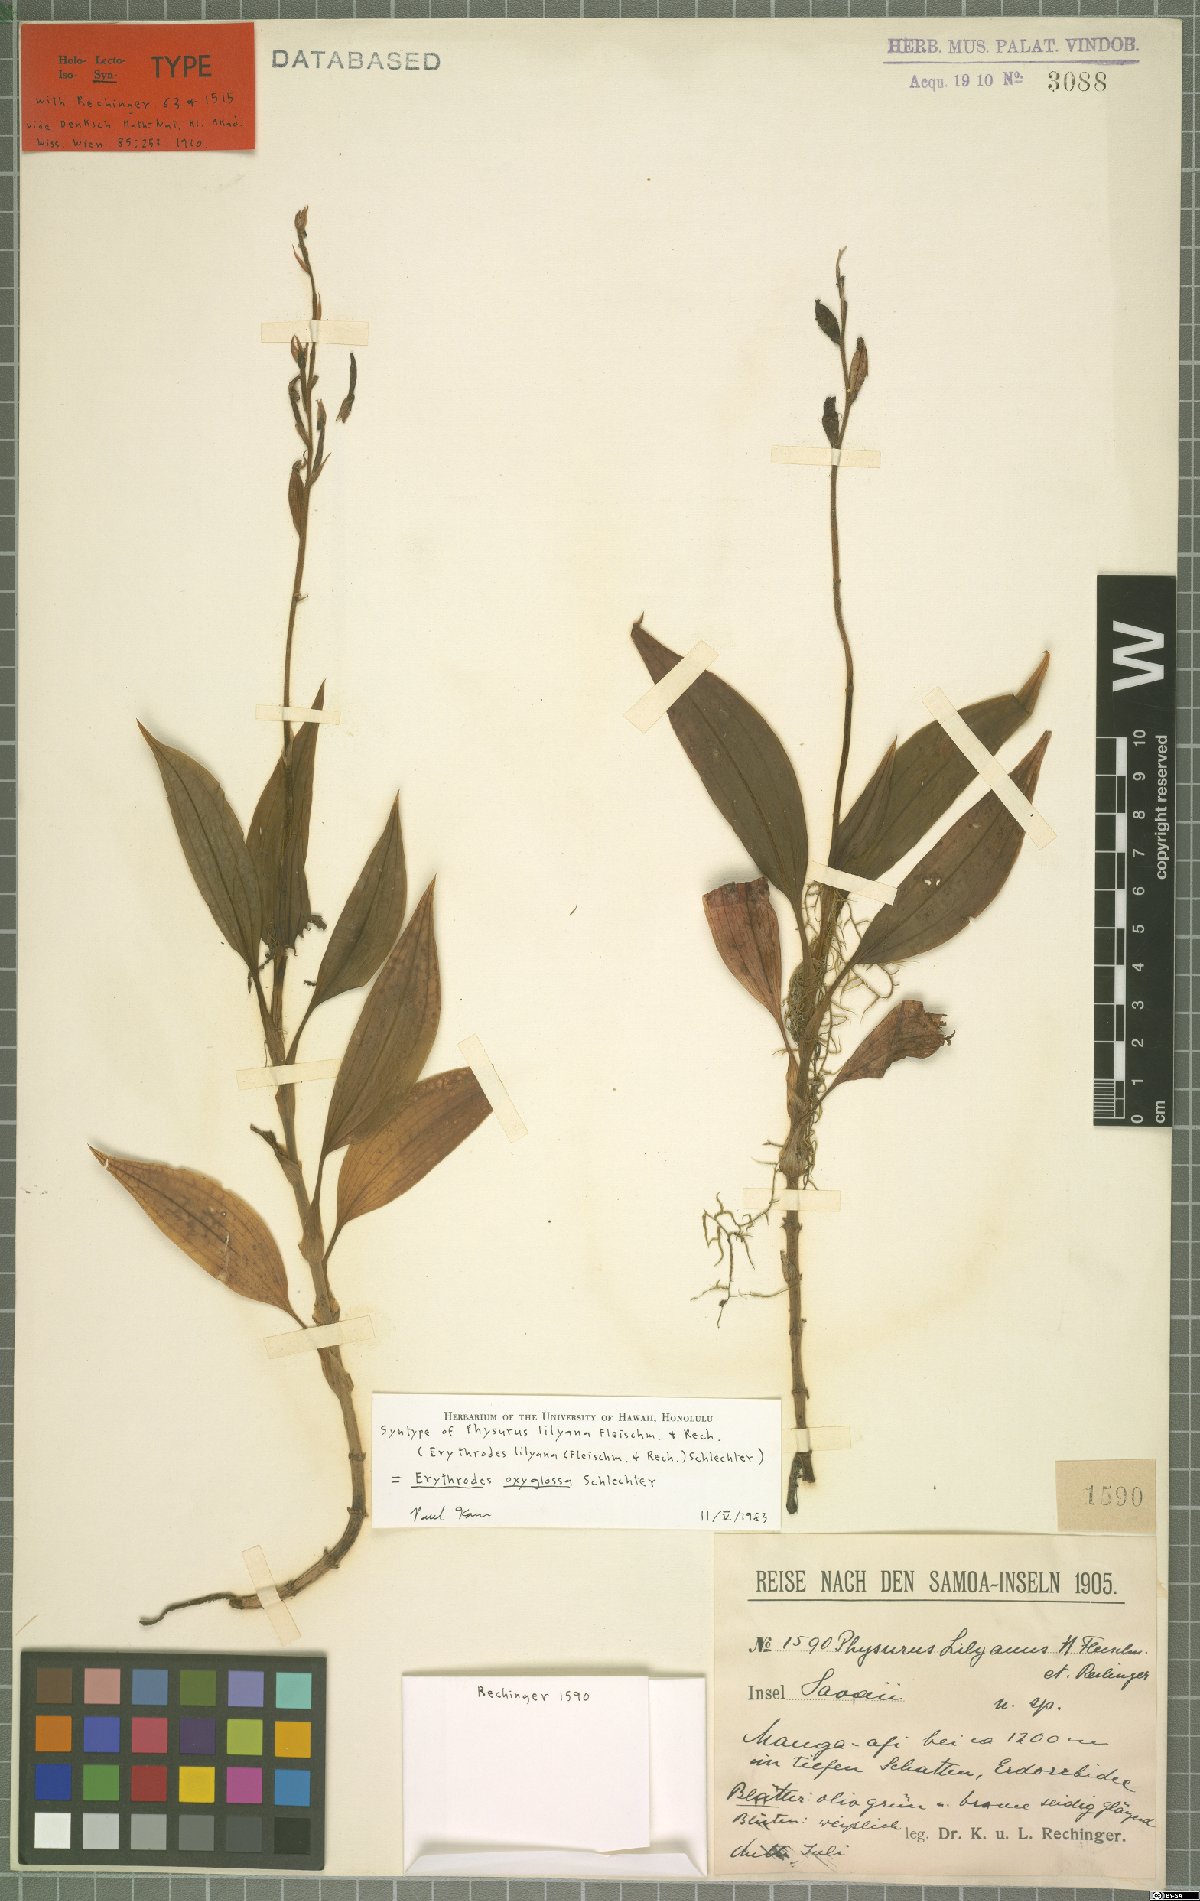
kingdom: Plantae
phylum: Tracheophyta
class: Liliopsida
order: Asparagales
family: Orchidaceae
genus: Erythrodes
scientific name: Erythrodes oxyglossa
